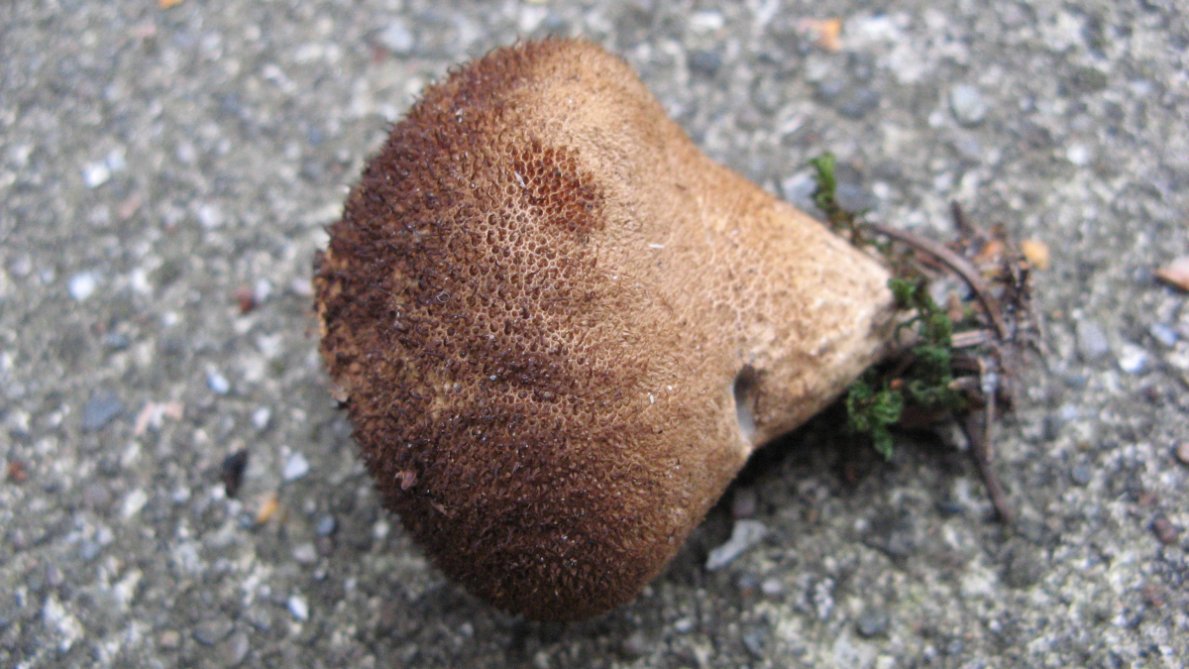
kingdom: Fungi
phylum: Basidiomycota
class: Agaricomycetes
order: Agaricales
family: Lycoperdaceae
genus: Lycoperdon
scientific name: Lycoperdon nigrescens
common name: sortagtig støvbold
